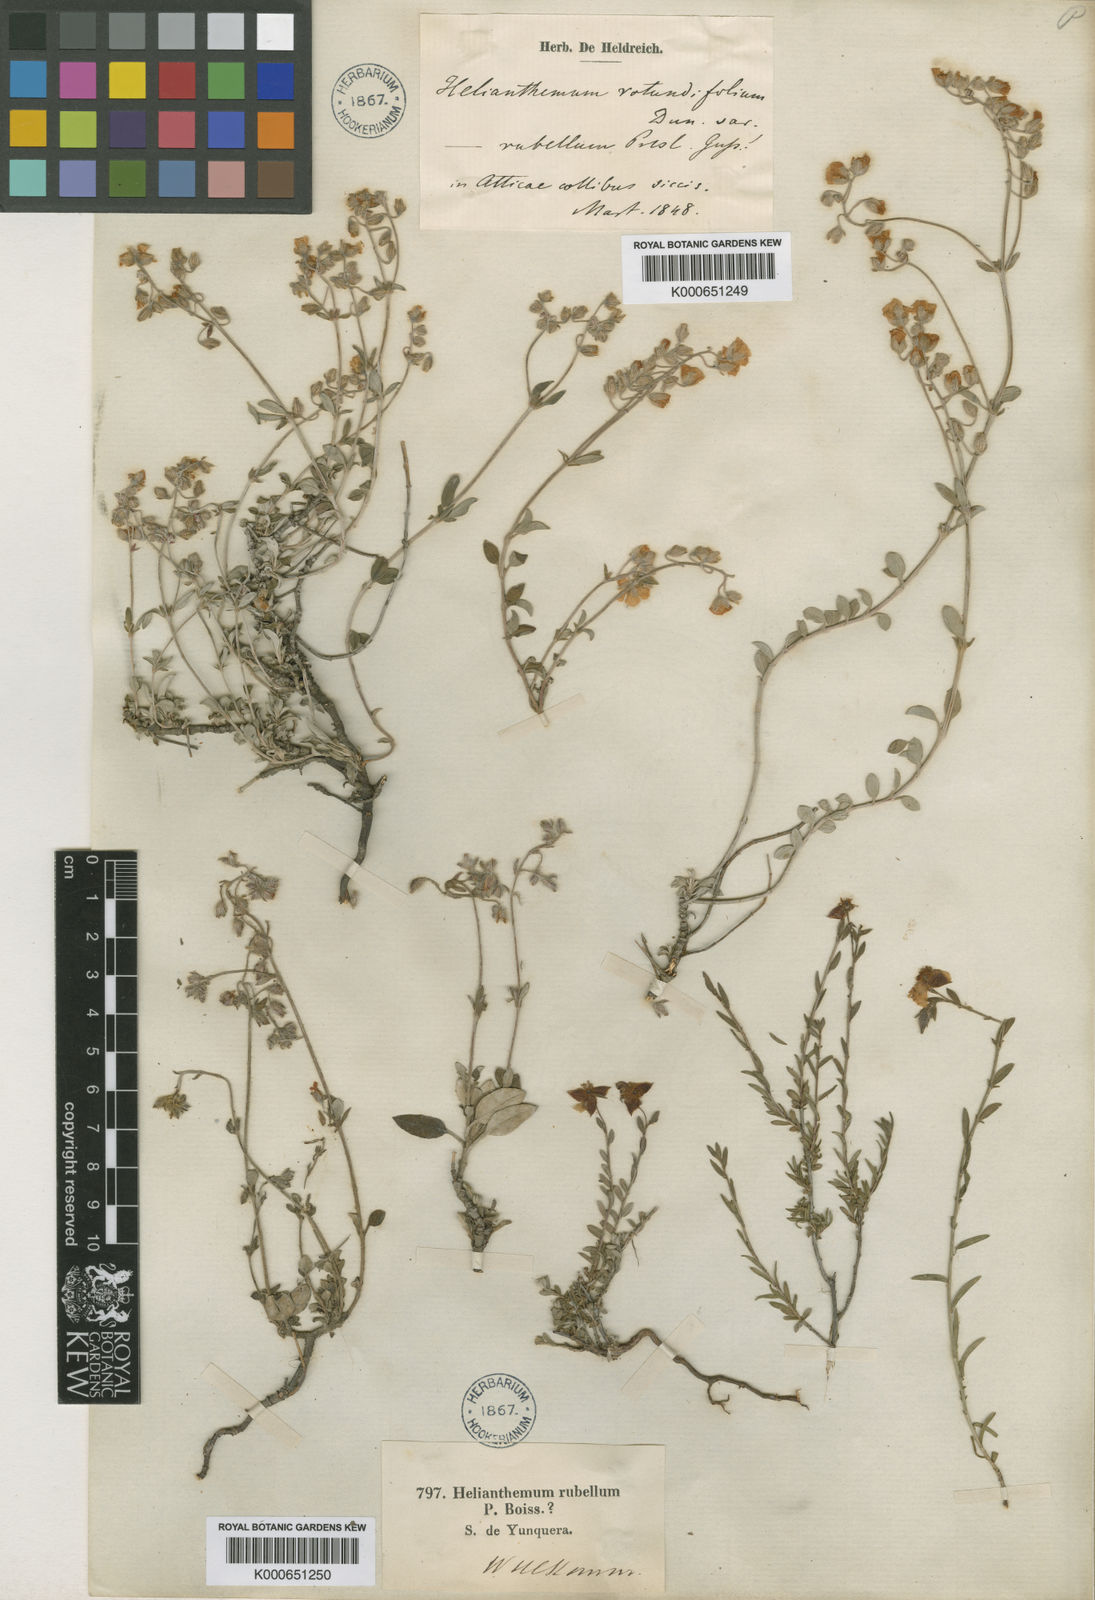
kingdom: Plantae
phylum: Tracheophyta
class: Magnoliopsida
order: Malvales
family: Cistaceae
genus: Helianthemum
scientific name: Helianthemum cinereum
